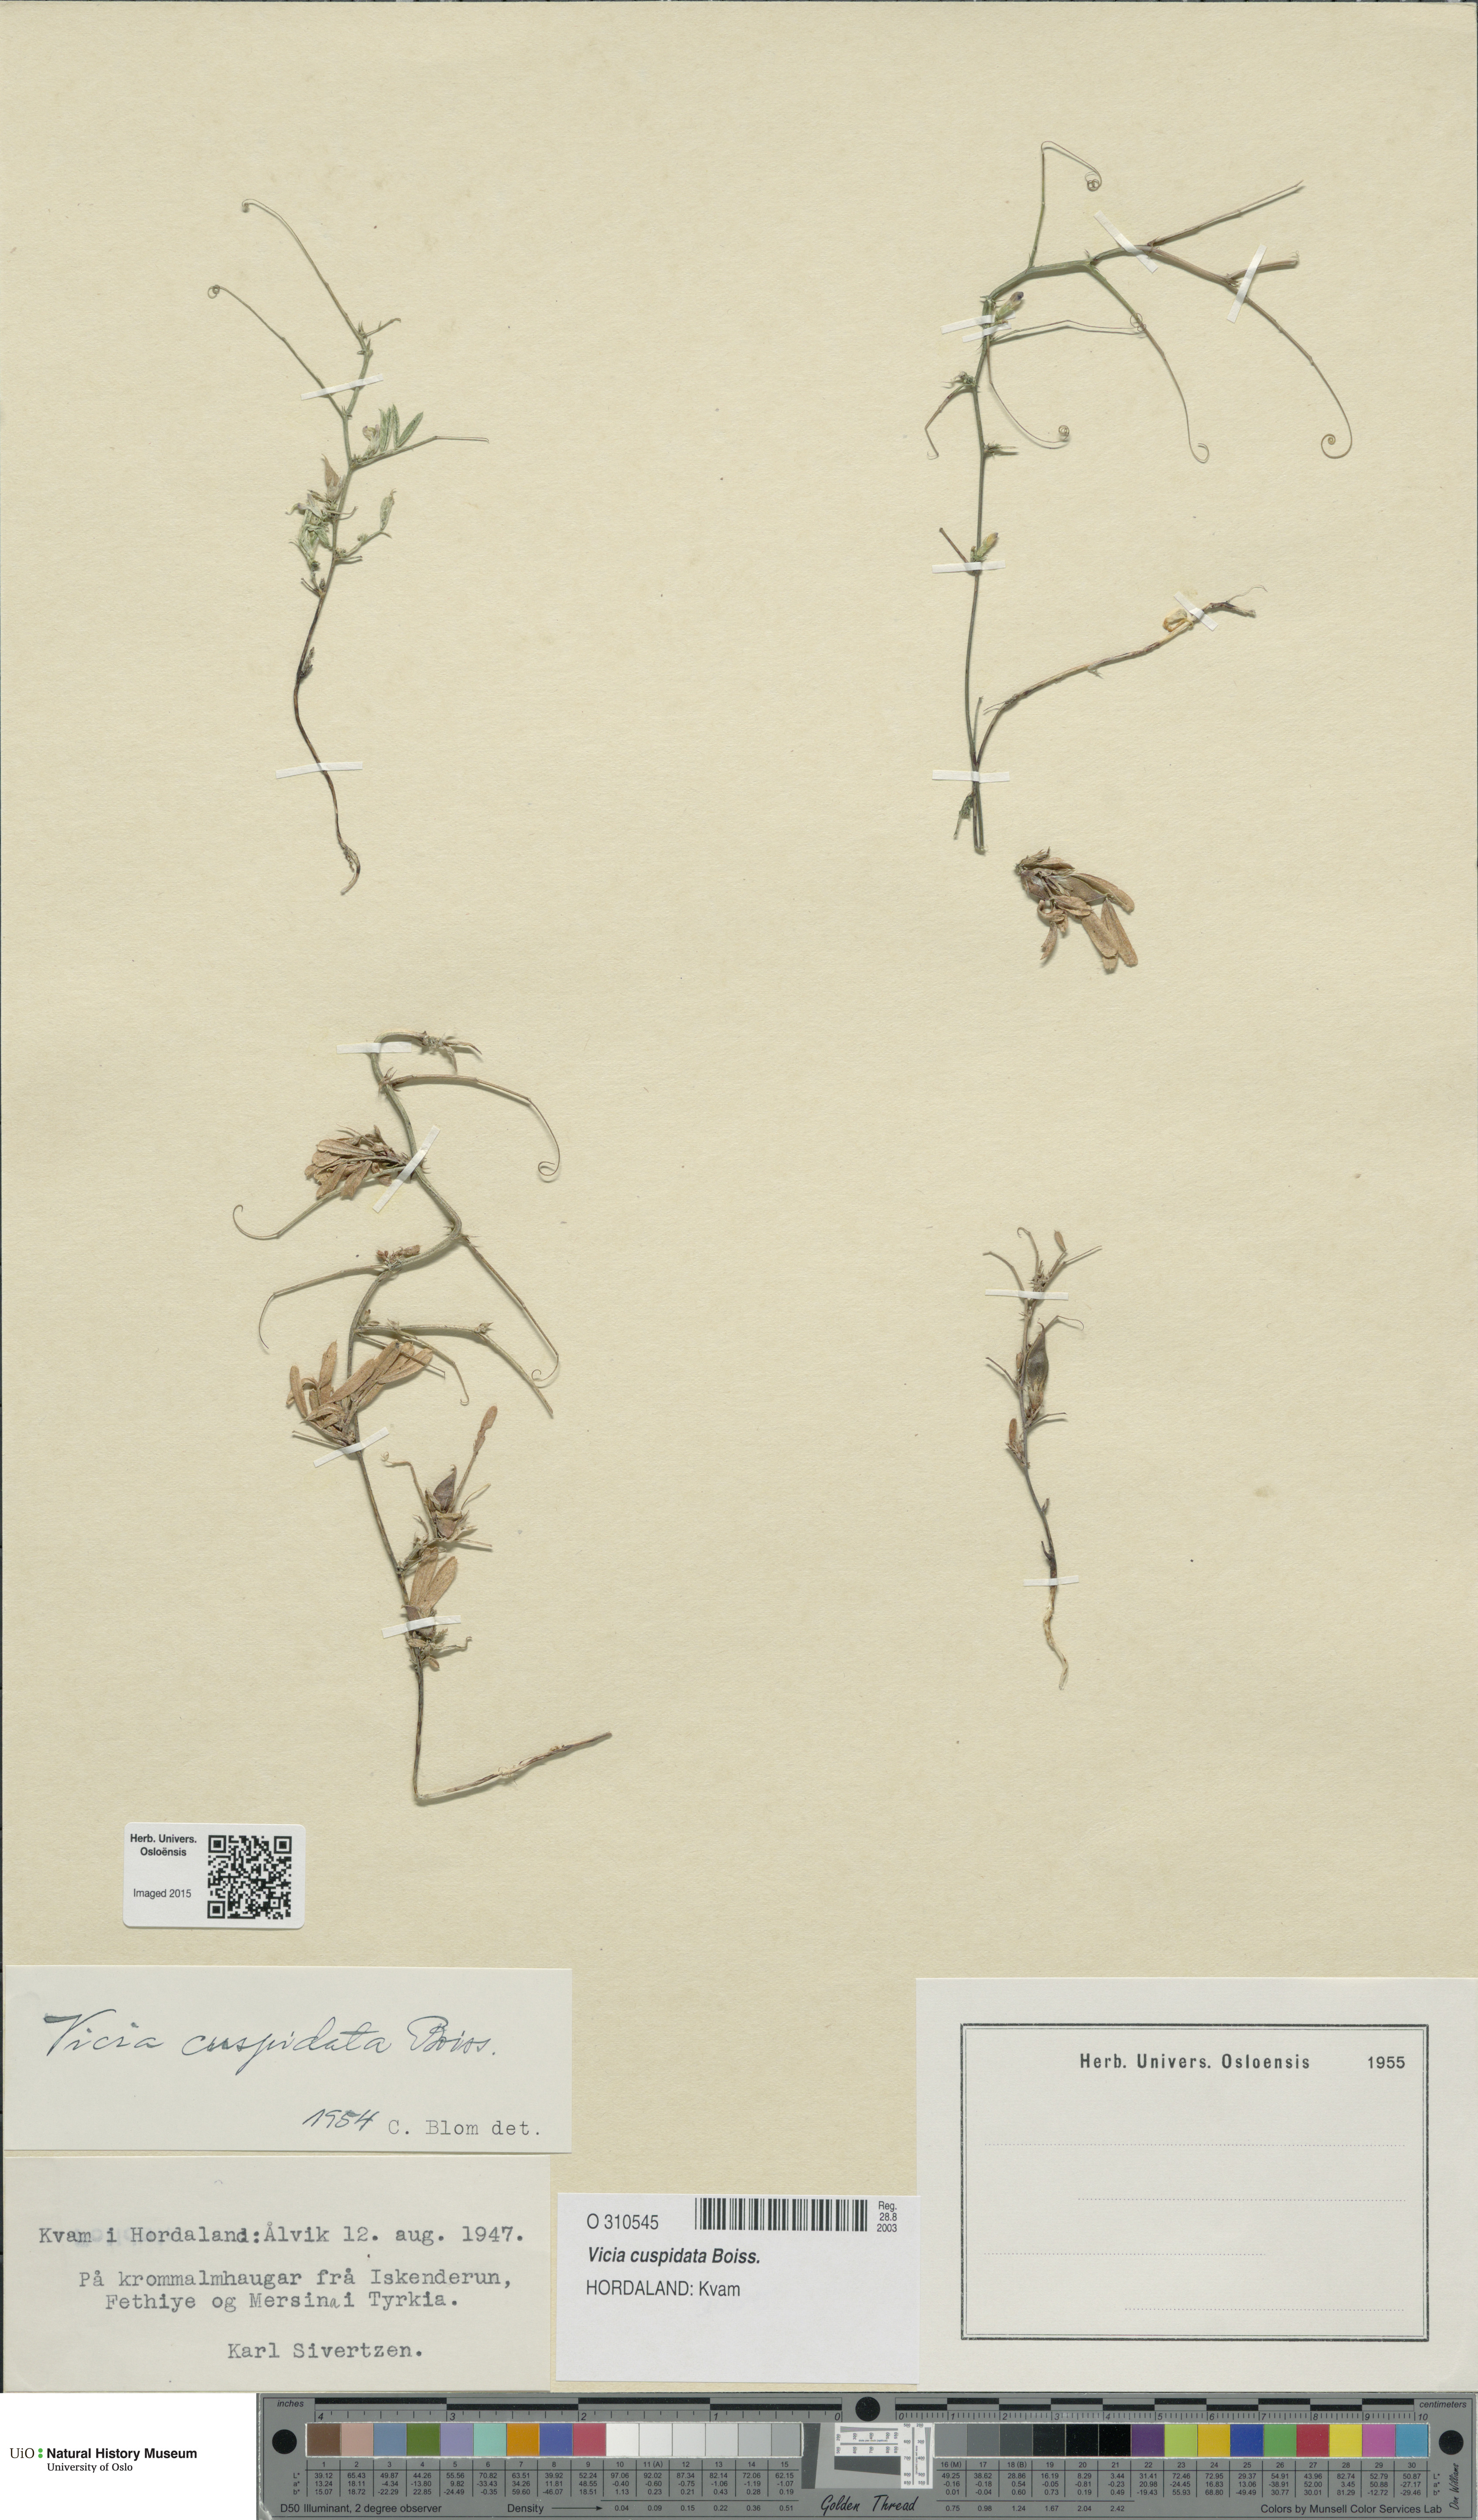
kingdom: Plantae
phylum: Tracheophyta
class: Magnoliopsida
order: Fabales
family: Fabaceae
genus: Vicia
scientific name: Vicia cuspidata
